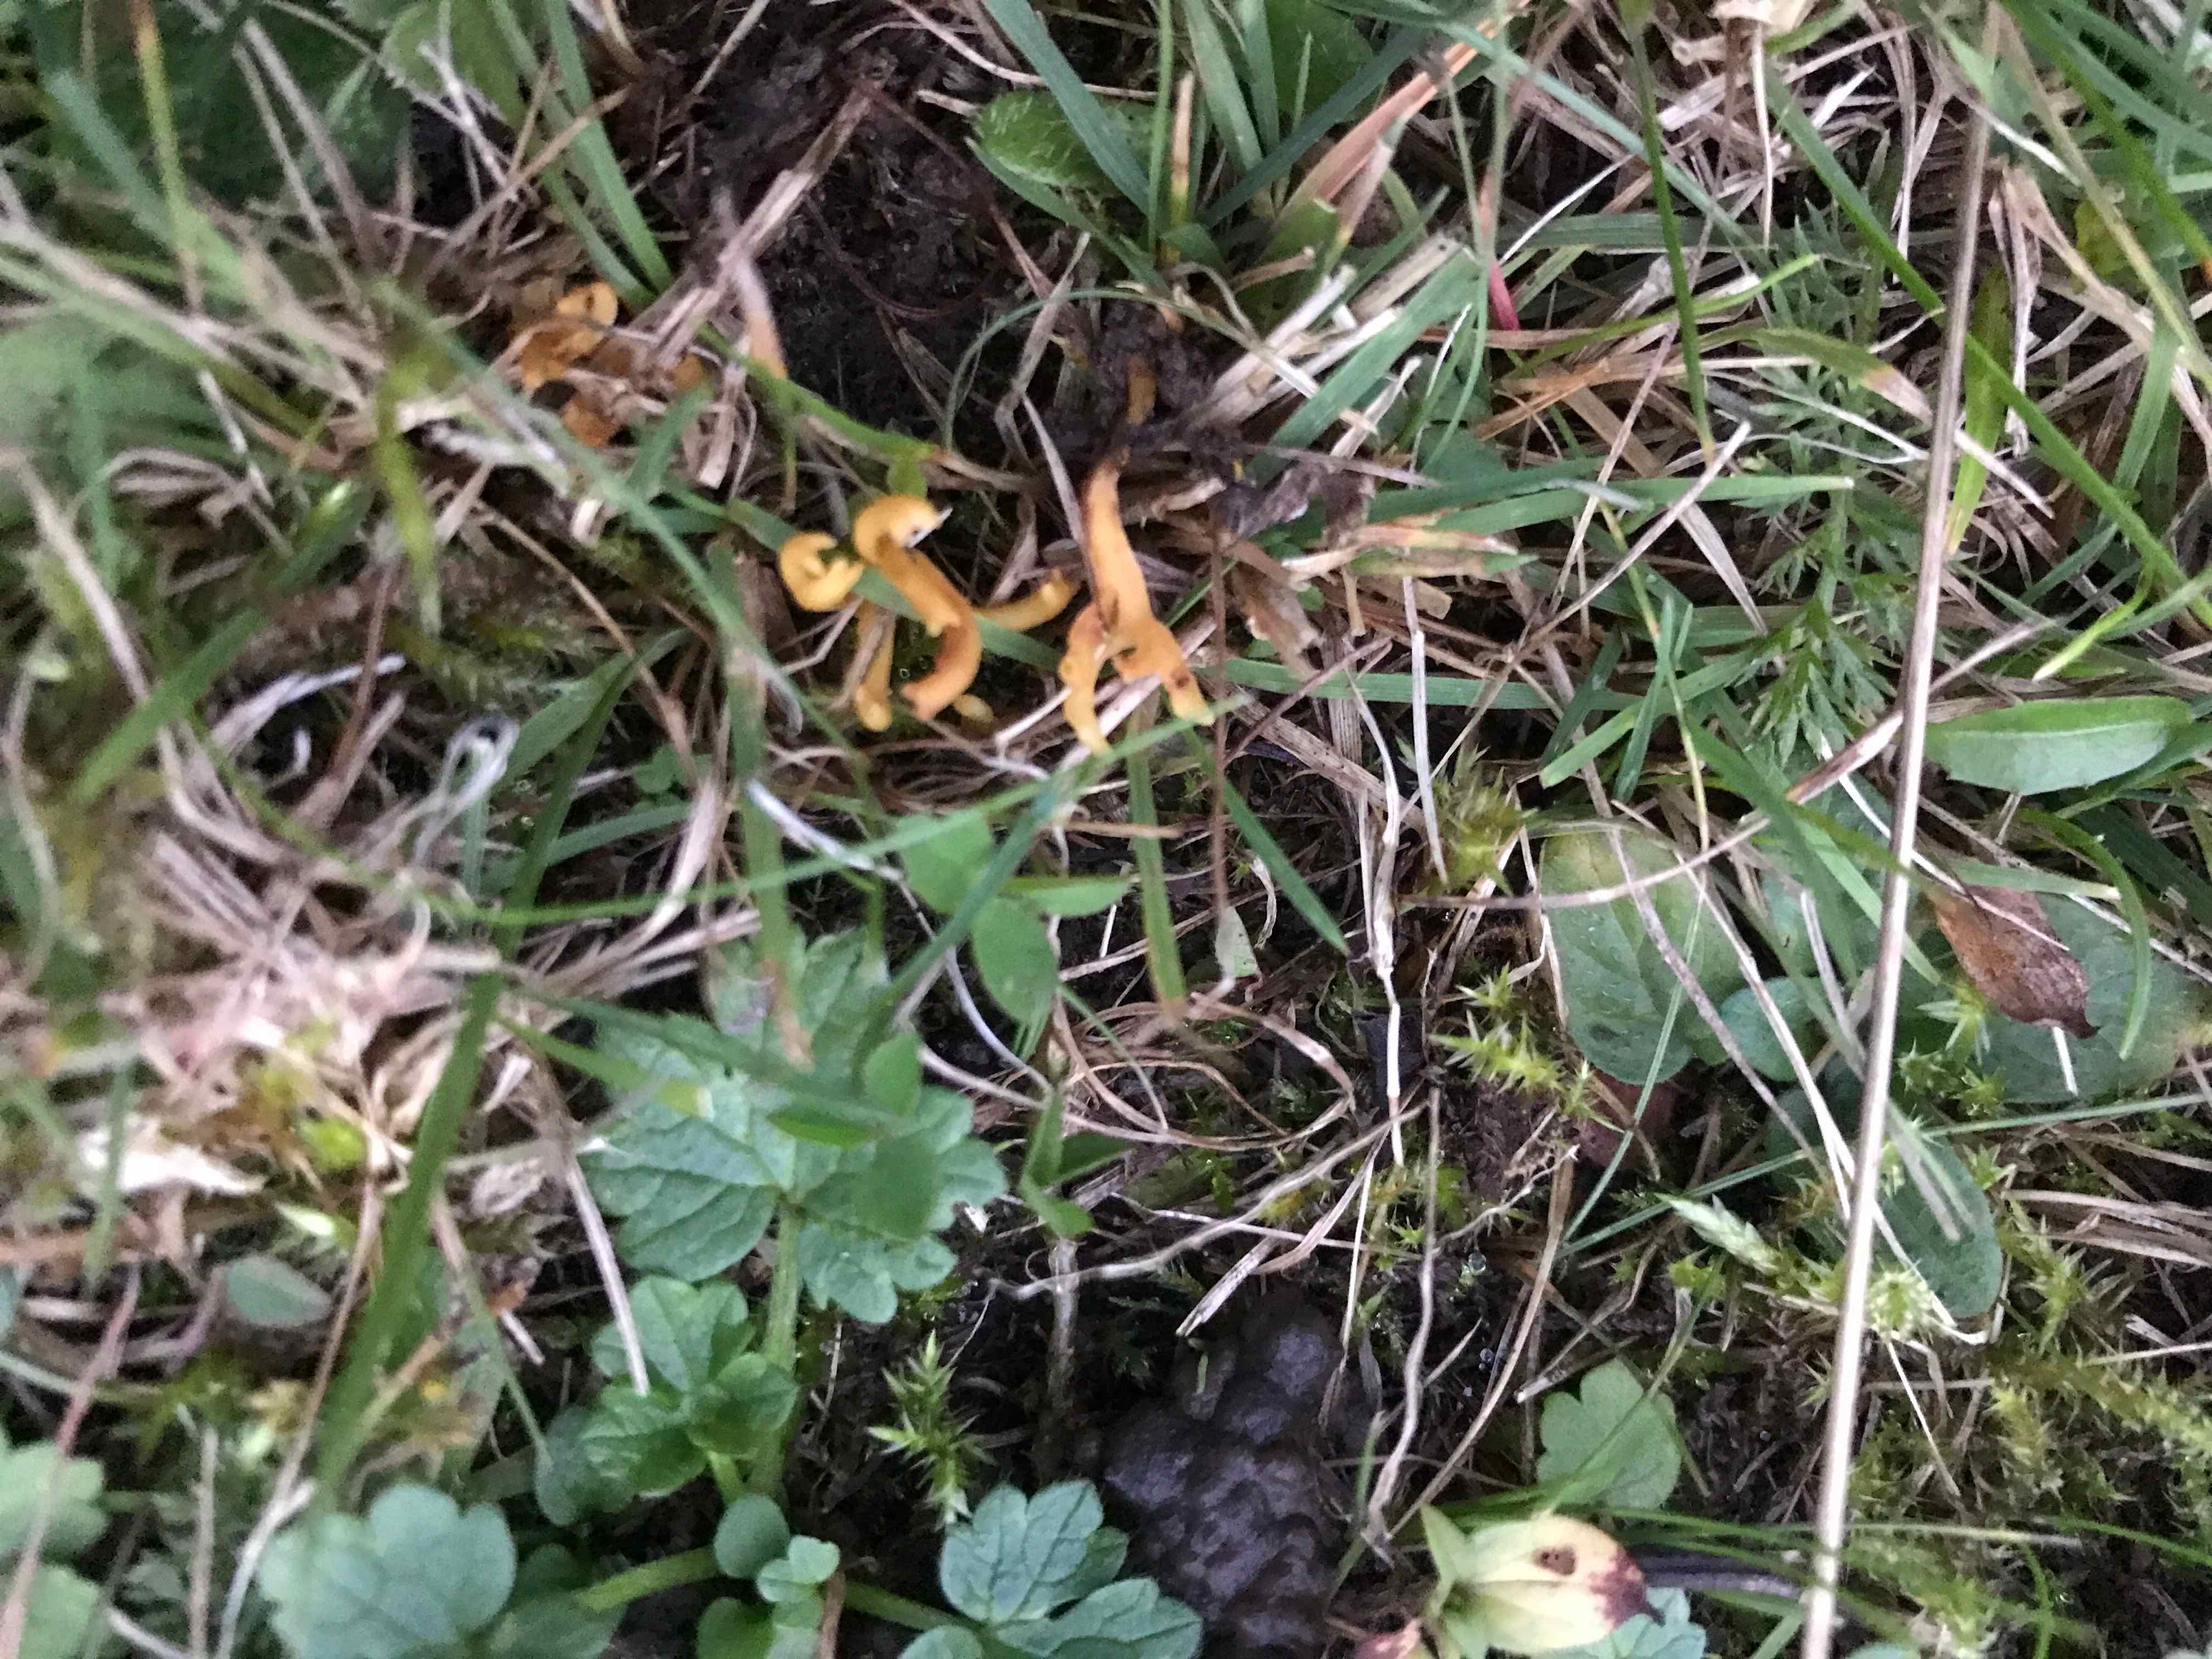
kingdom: Fungi
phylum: Basidiomycota
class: Agaricomycetes
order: Agaricales
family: Clavariaceae
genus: Clavulinopsis
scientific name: Clavulinopsis corniculata
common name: eng-køllesvamp
